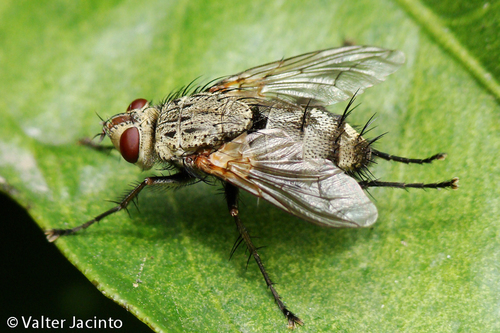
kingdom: Animalia
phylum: Arthropoda
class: Insecta
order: Diptera
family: Tachinidae
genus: Microphthalma
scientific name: Microphthalma europaea
